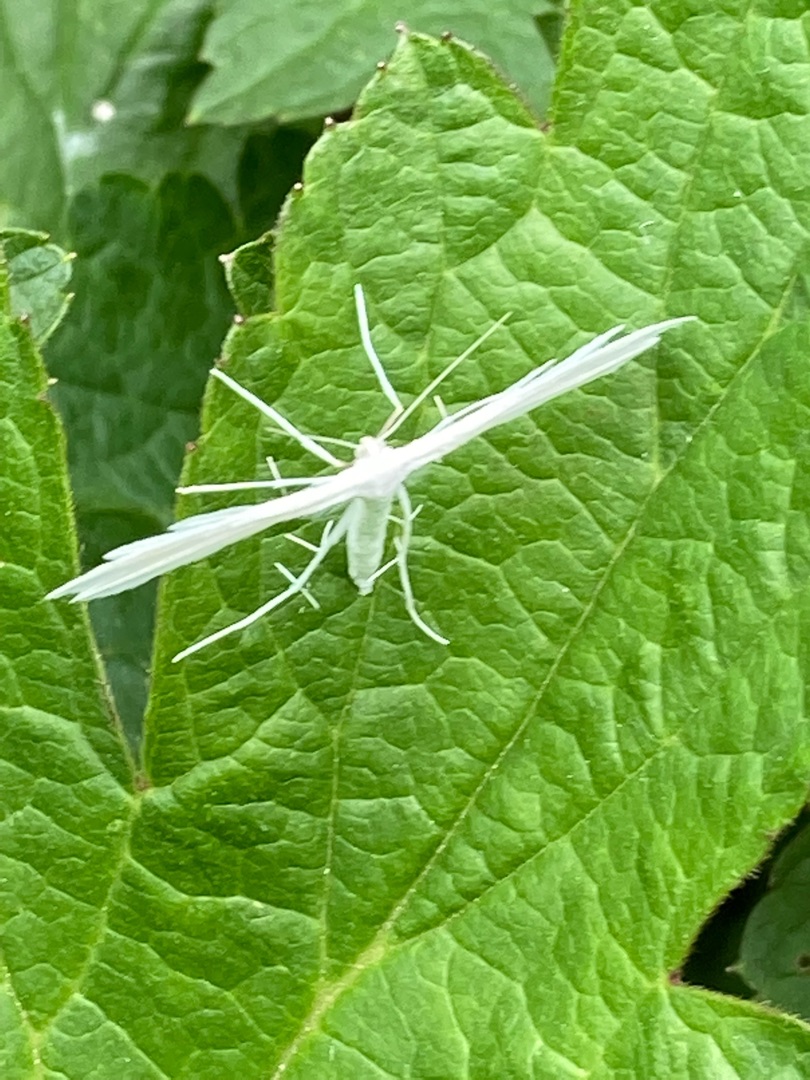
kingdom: Animalia
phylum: Arthropoda
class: Insecta
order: Lepidoptera
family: Pterophoridae
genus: Pterophorus
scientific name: Pterophorus pentadactyla
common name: Hvidt fjermøl
